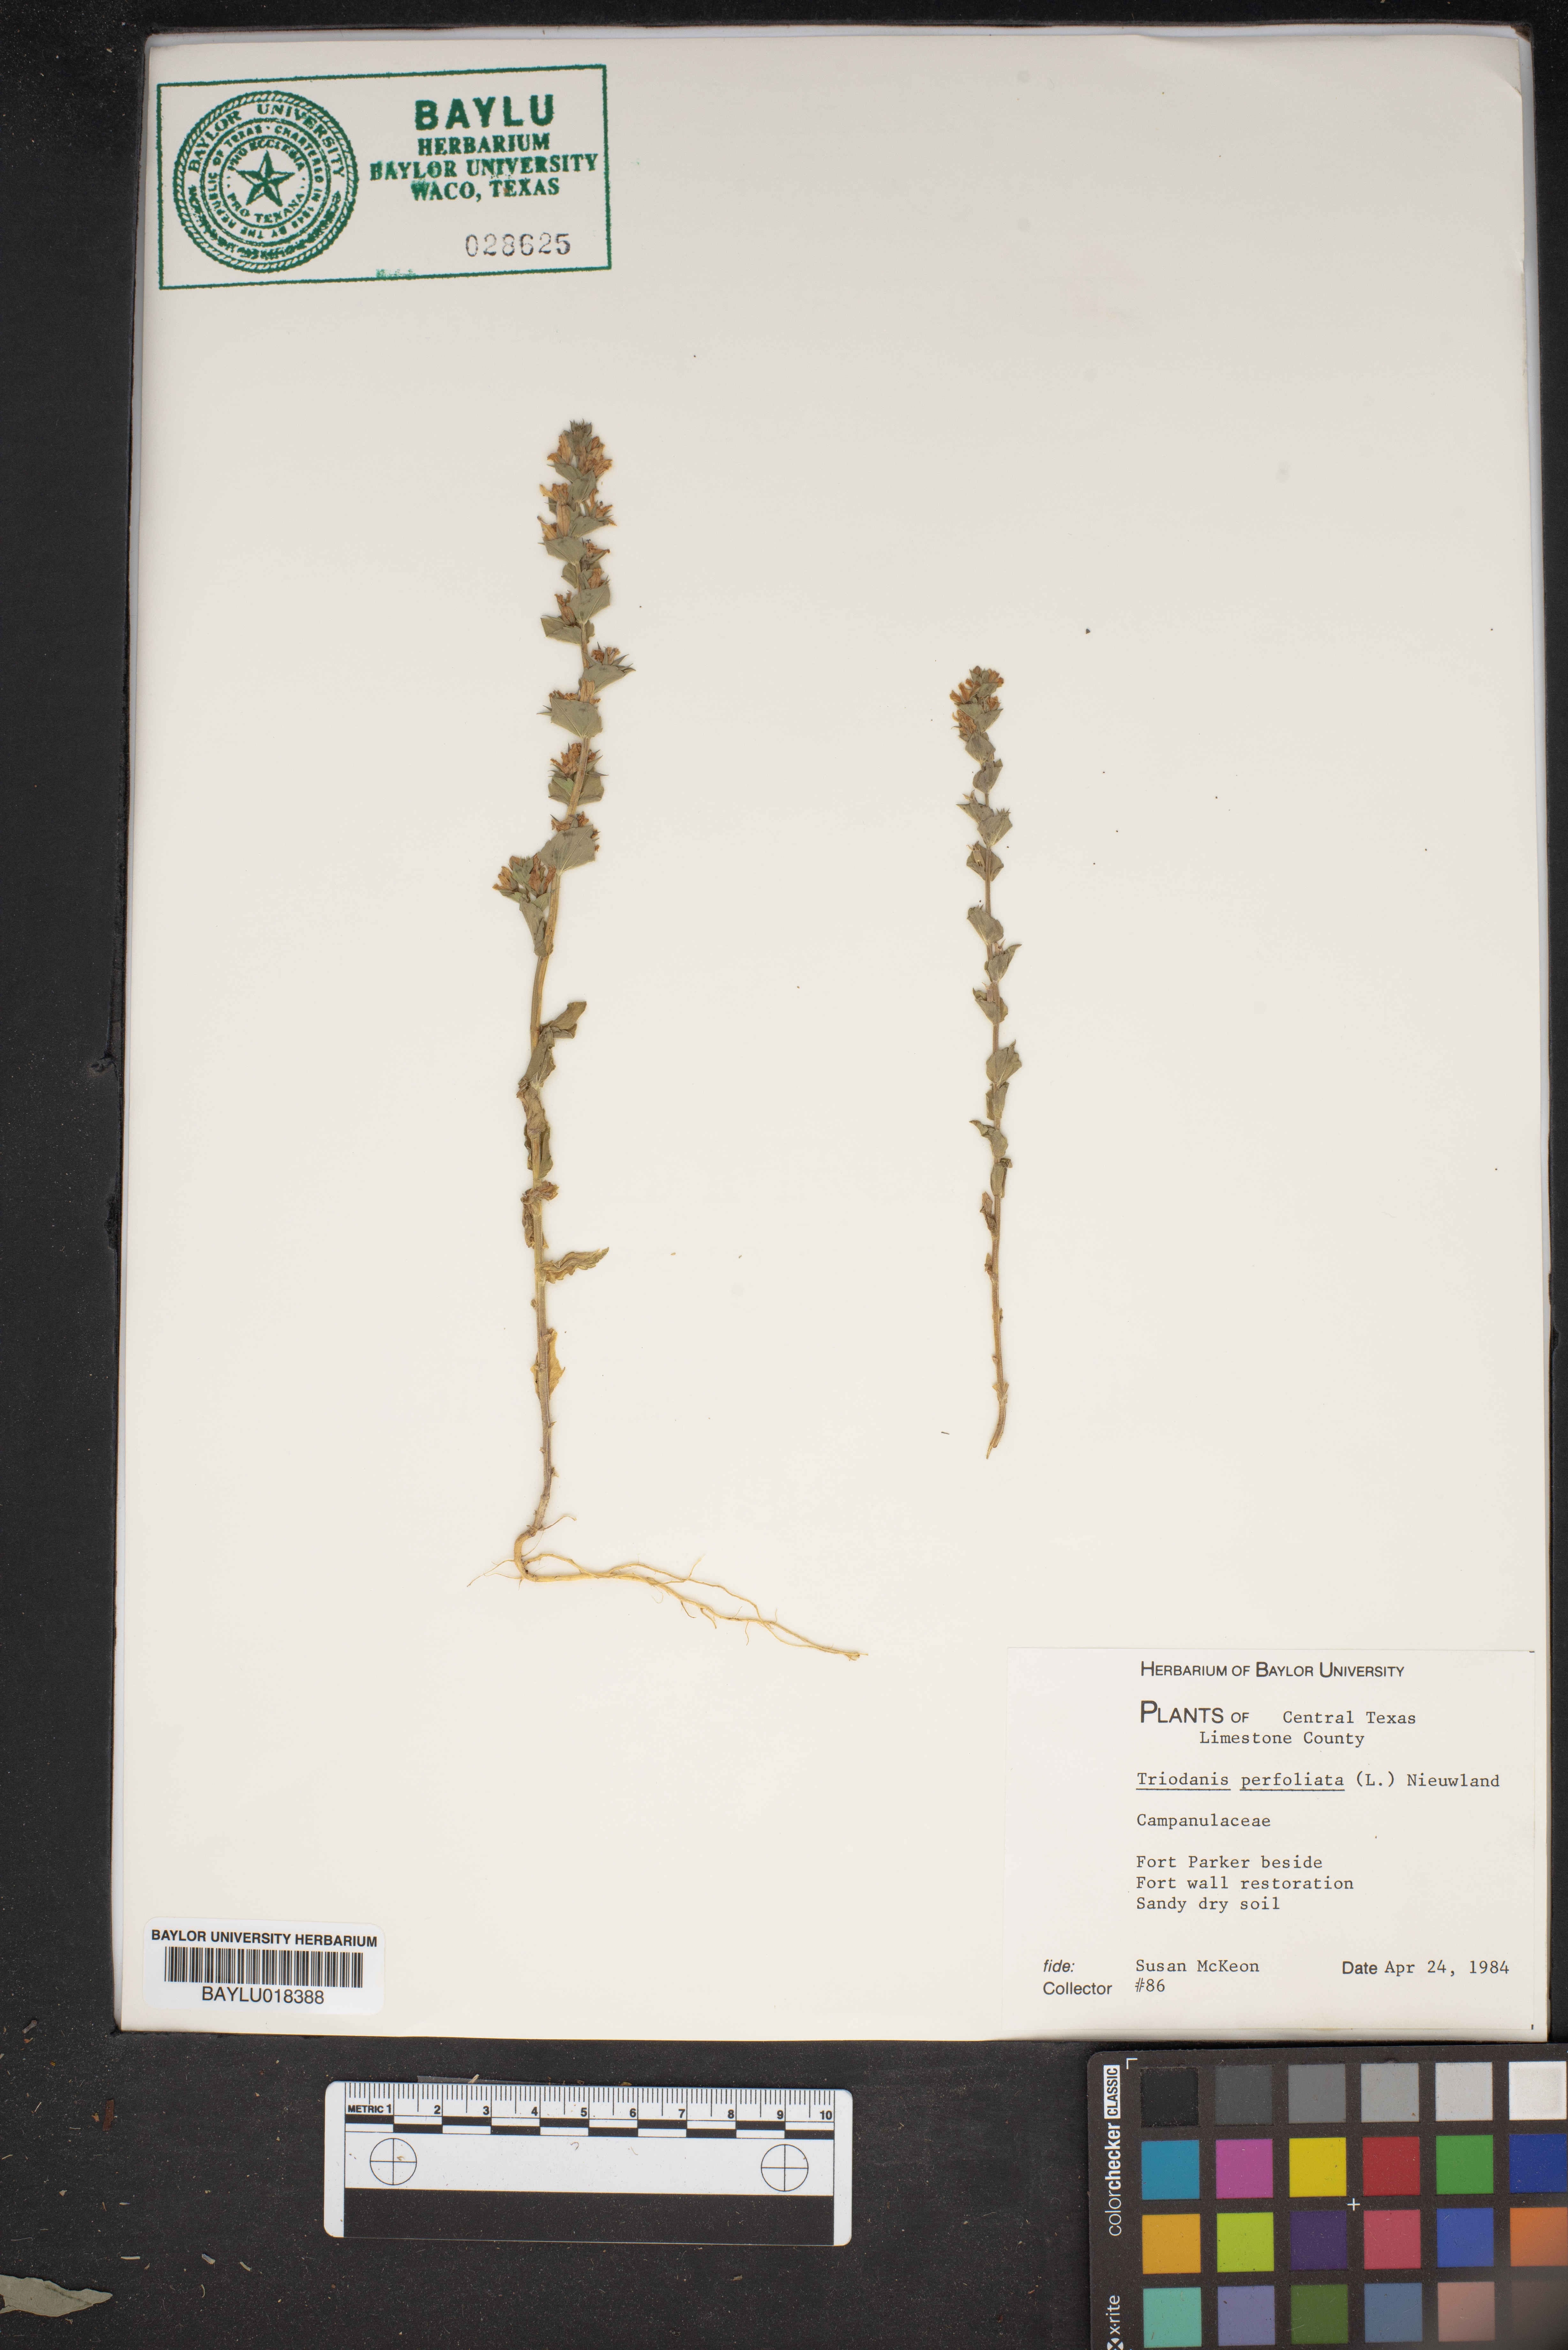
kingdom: Plantae
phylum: Tracheophyta
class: Magnoliopsida
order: Asterales
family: Campanulaceae
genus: Triodanis
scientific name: Triodanis perfoliata
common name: Clasping venus' looking-glass
